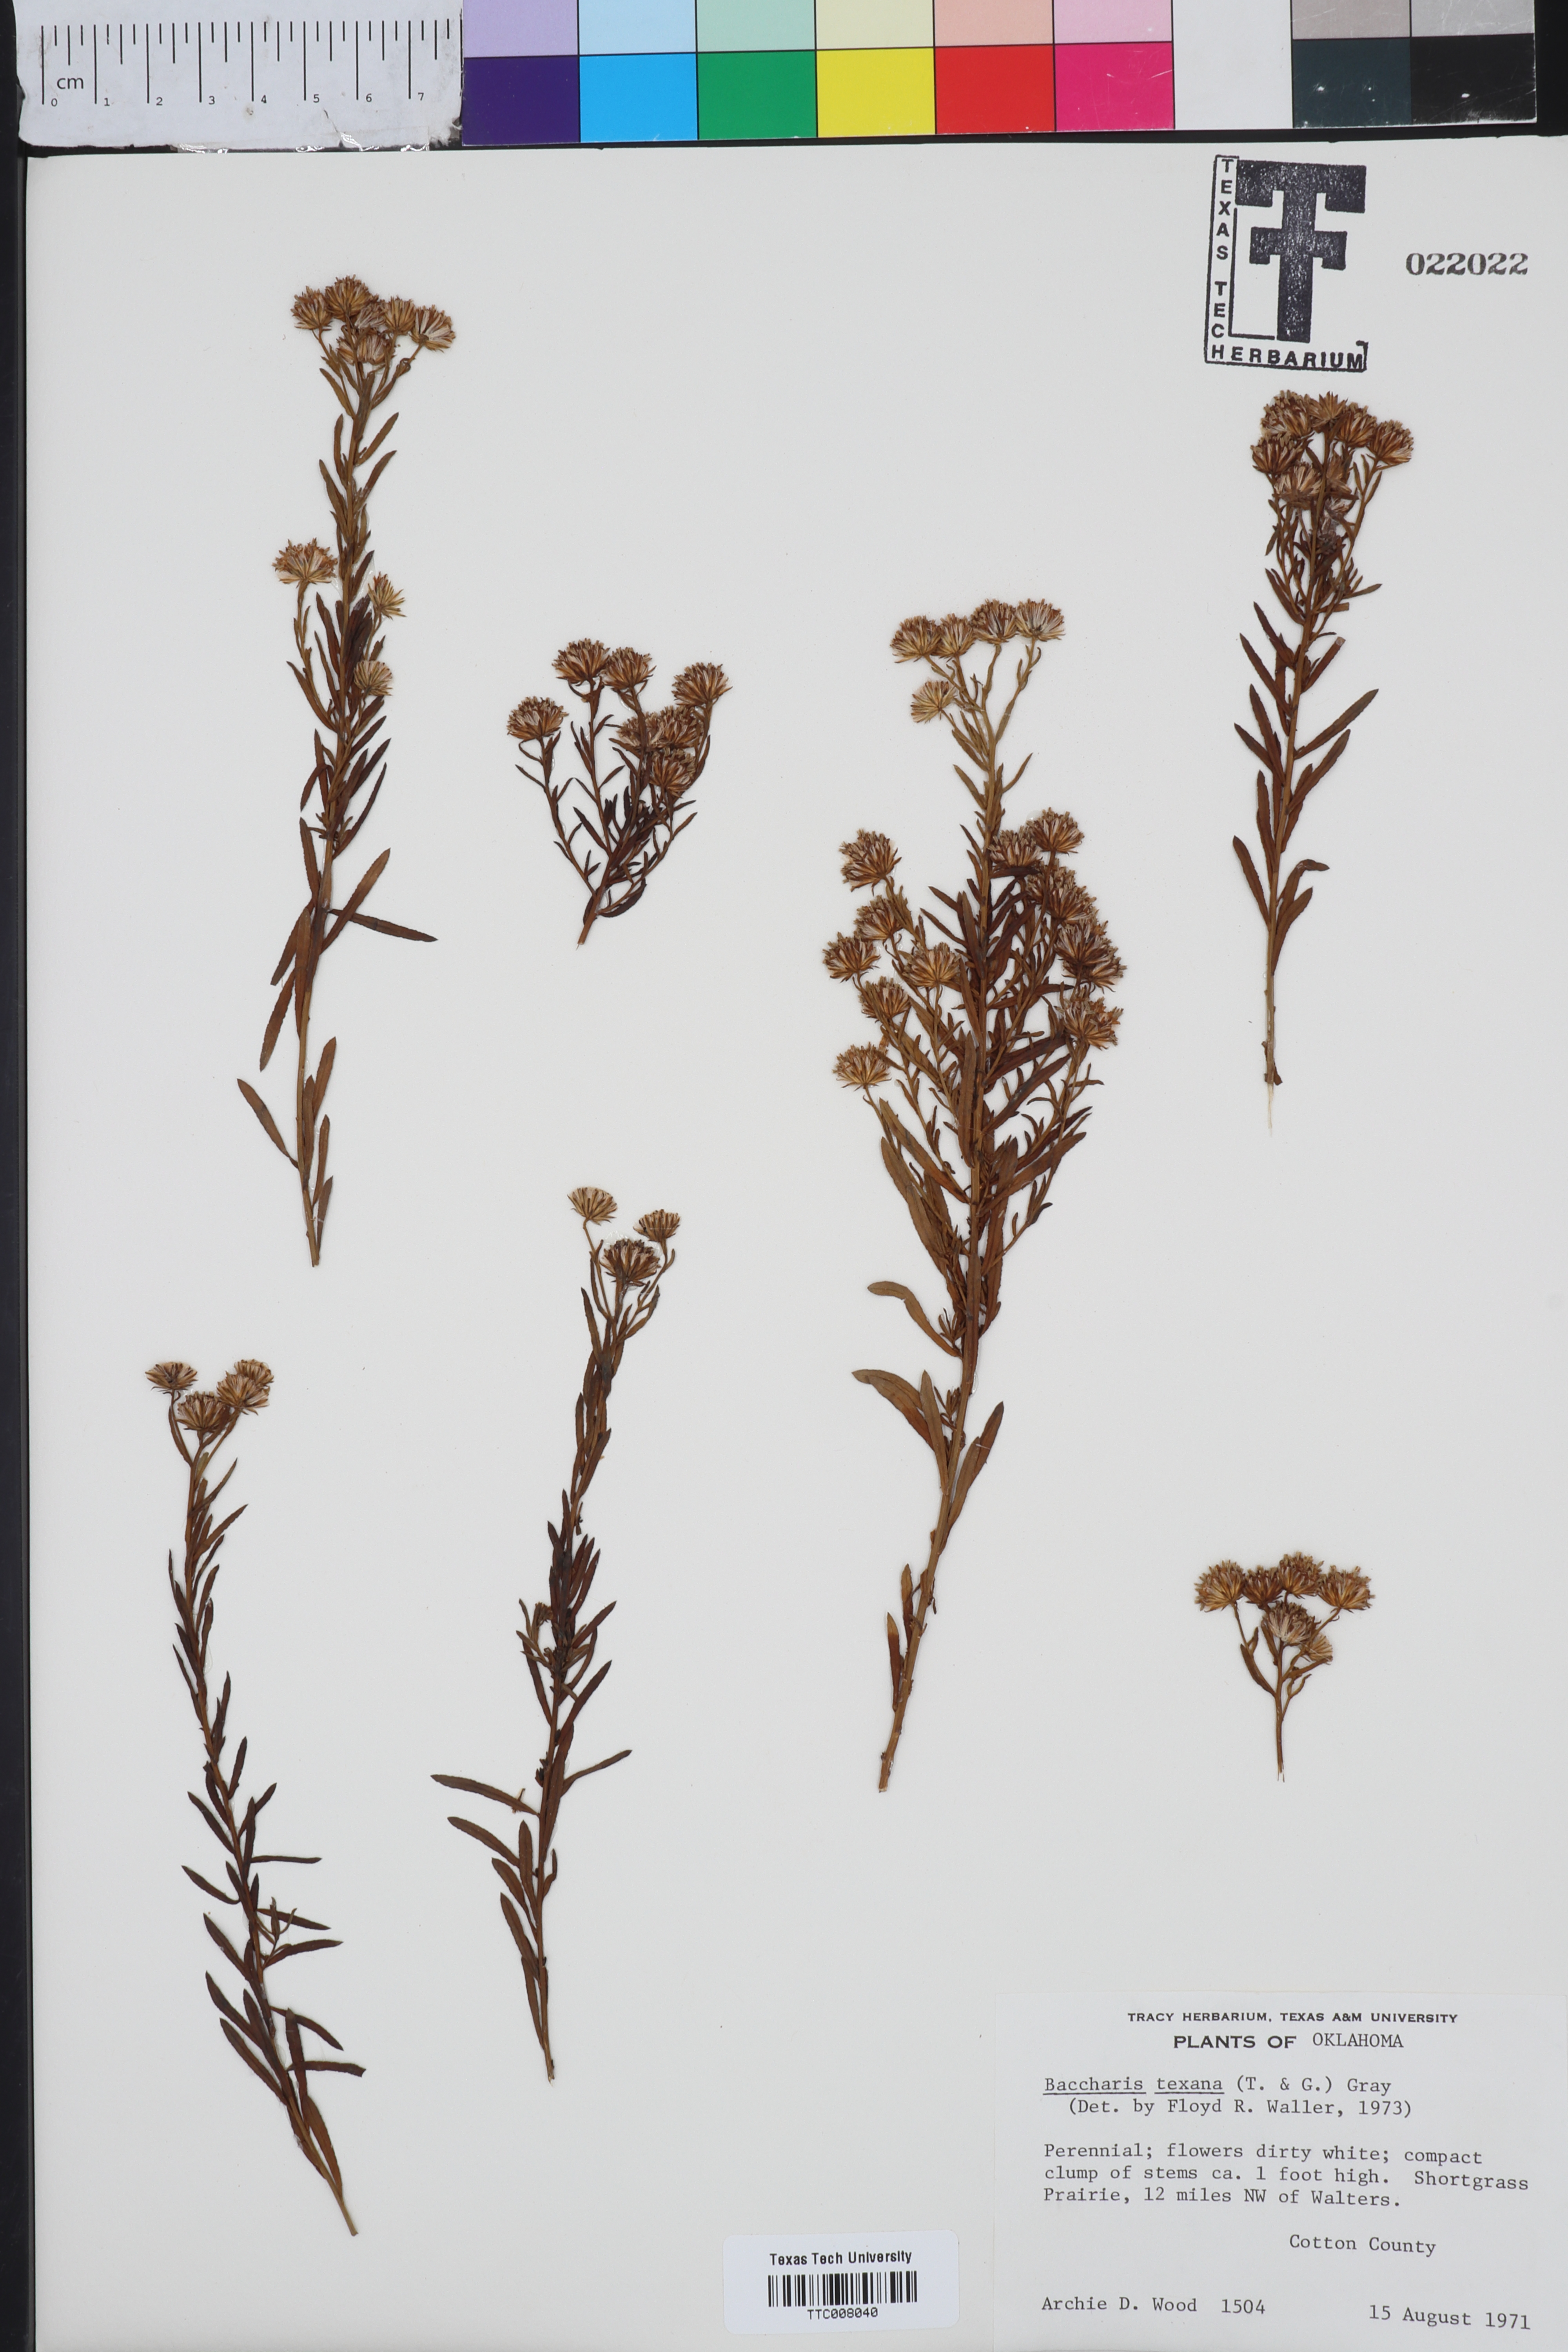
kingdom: Plantae
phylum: Tracheophyta
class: Magnoliopsida
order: Asterales
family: Asteraceae
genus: Baccharis
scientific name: Baccharis texana
